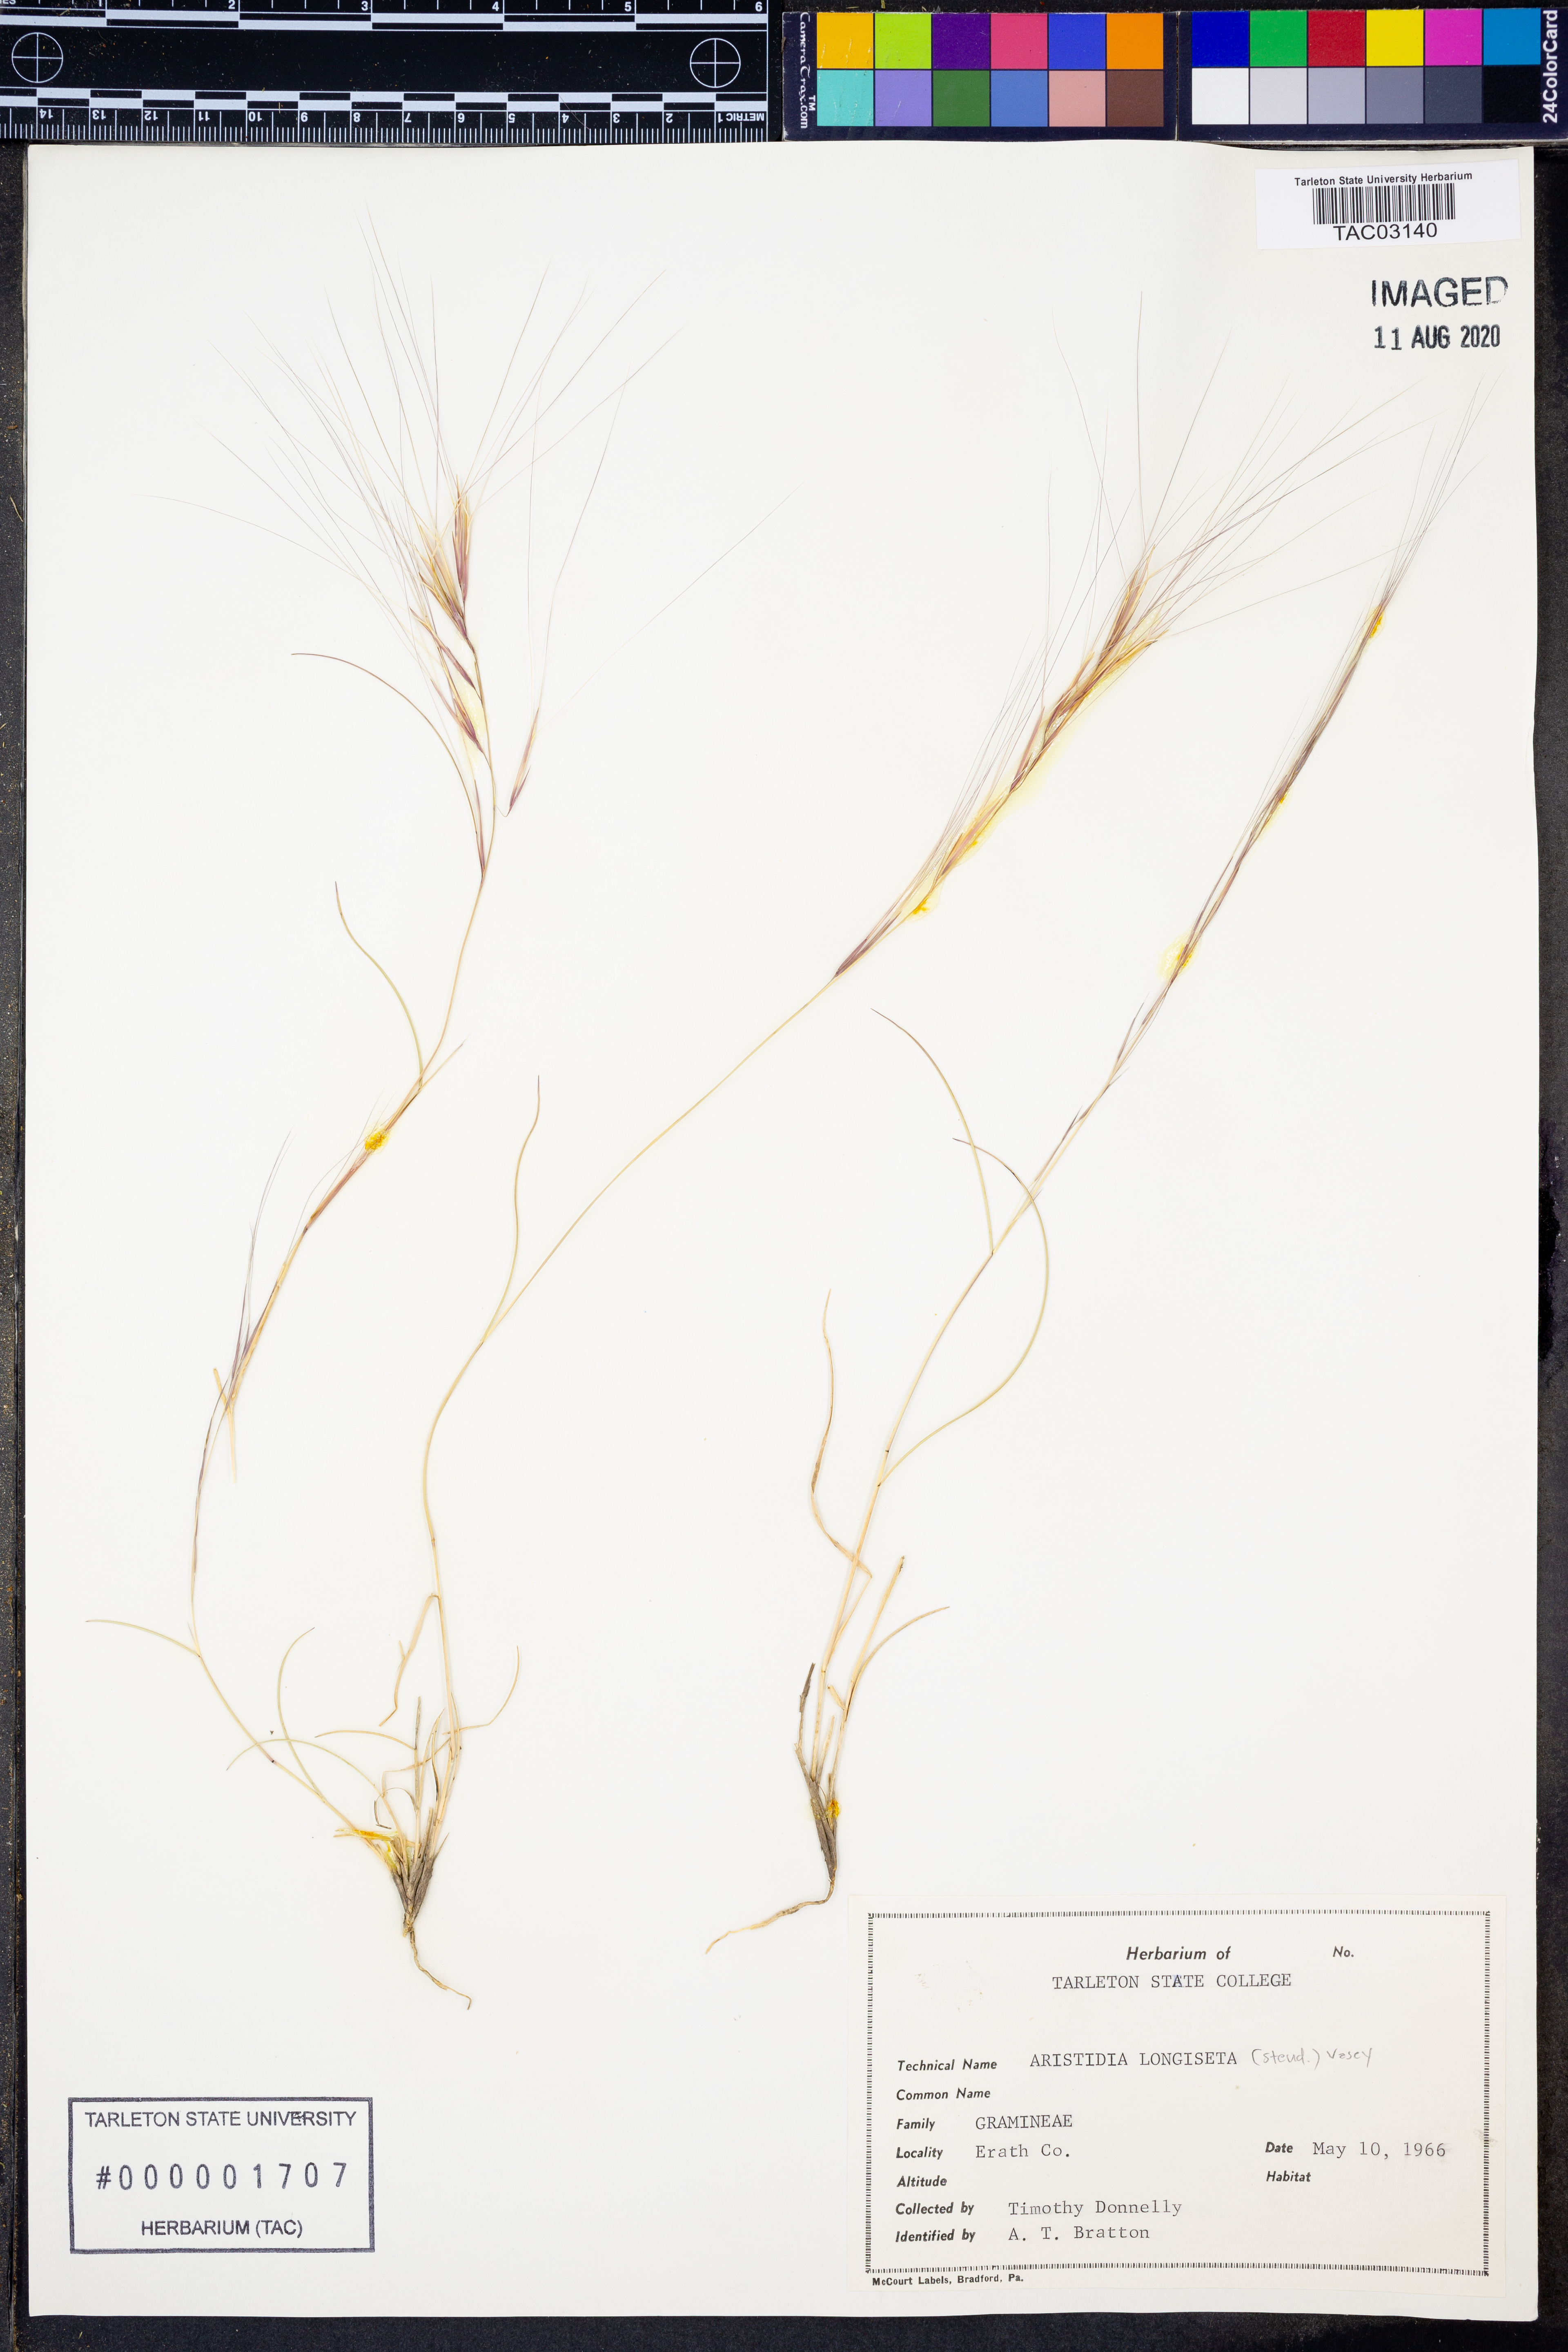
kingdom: Plantae
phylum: Tracheophyta
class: Liliopsida
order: Poales
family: Poaceae
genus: Aristida
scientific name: Aristida longiseta
